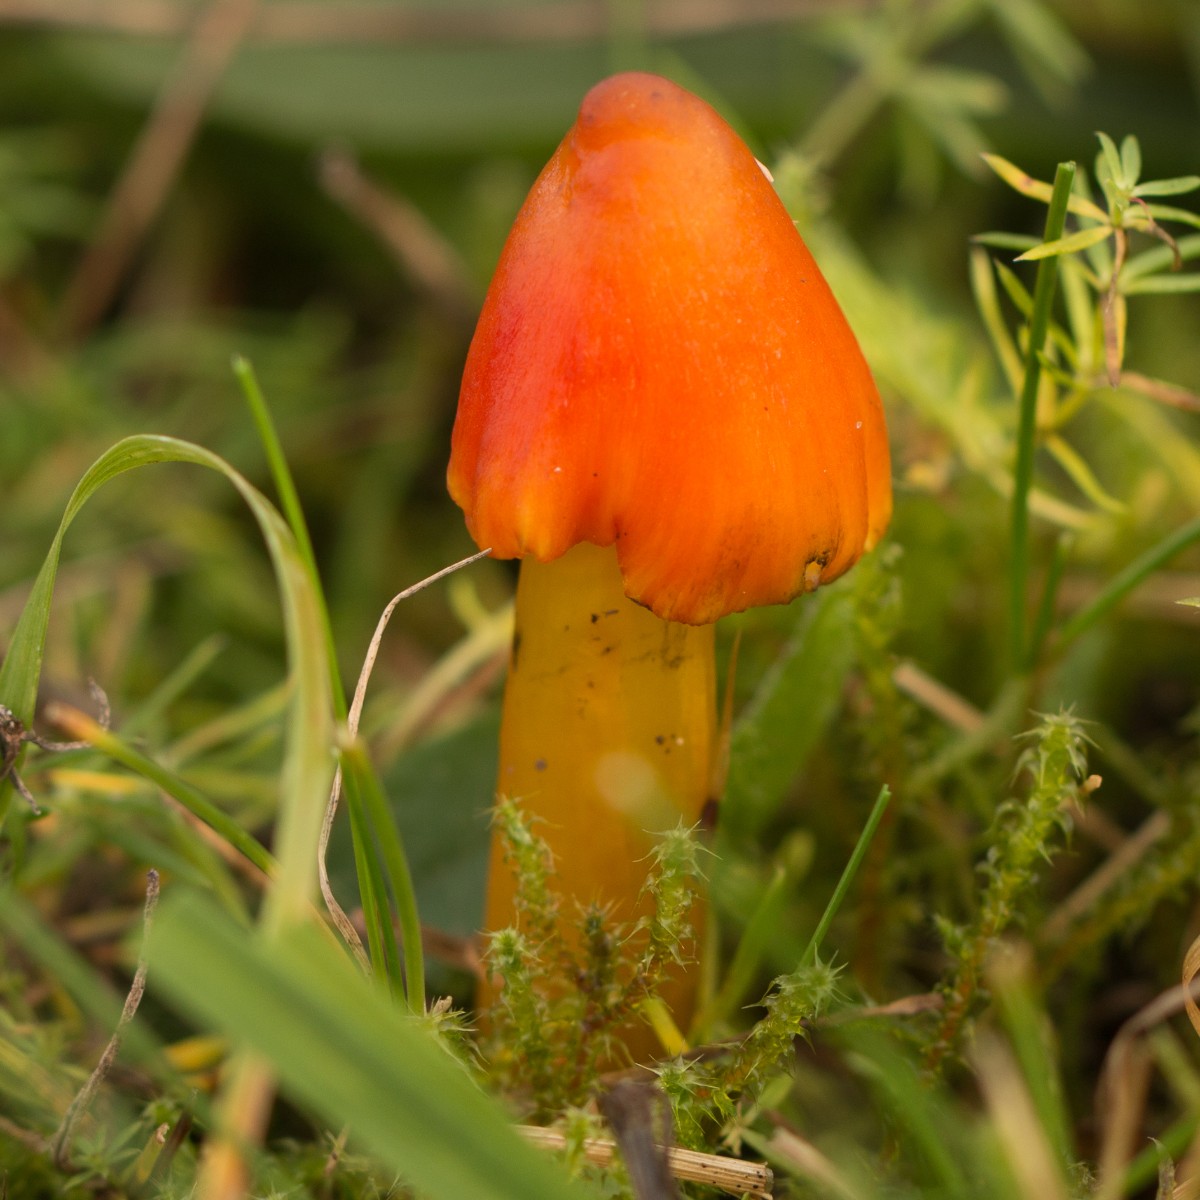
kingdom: Fungi
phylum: Basidiomycota
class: Agaricomycetes
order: Agaricales
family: Hygrophoraceae
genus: Hygrocybe
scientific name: Hygrocybe conica
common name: kegle-vokshat
